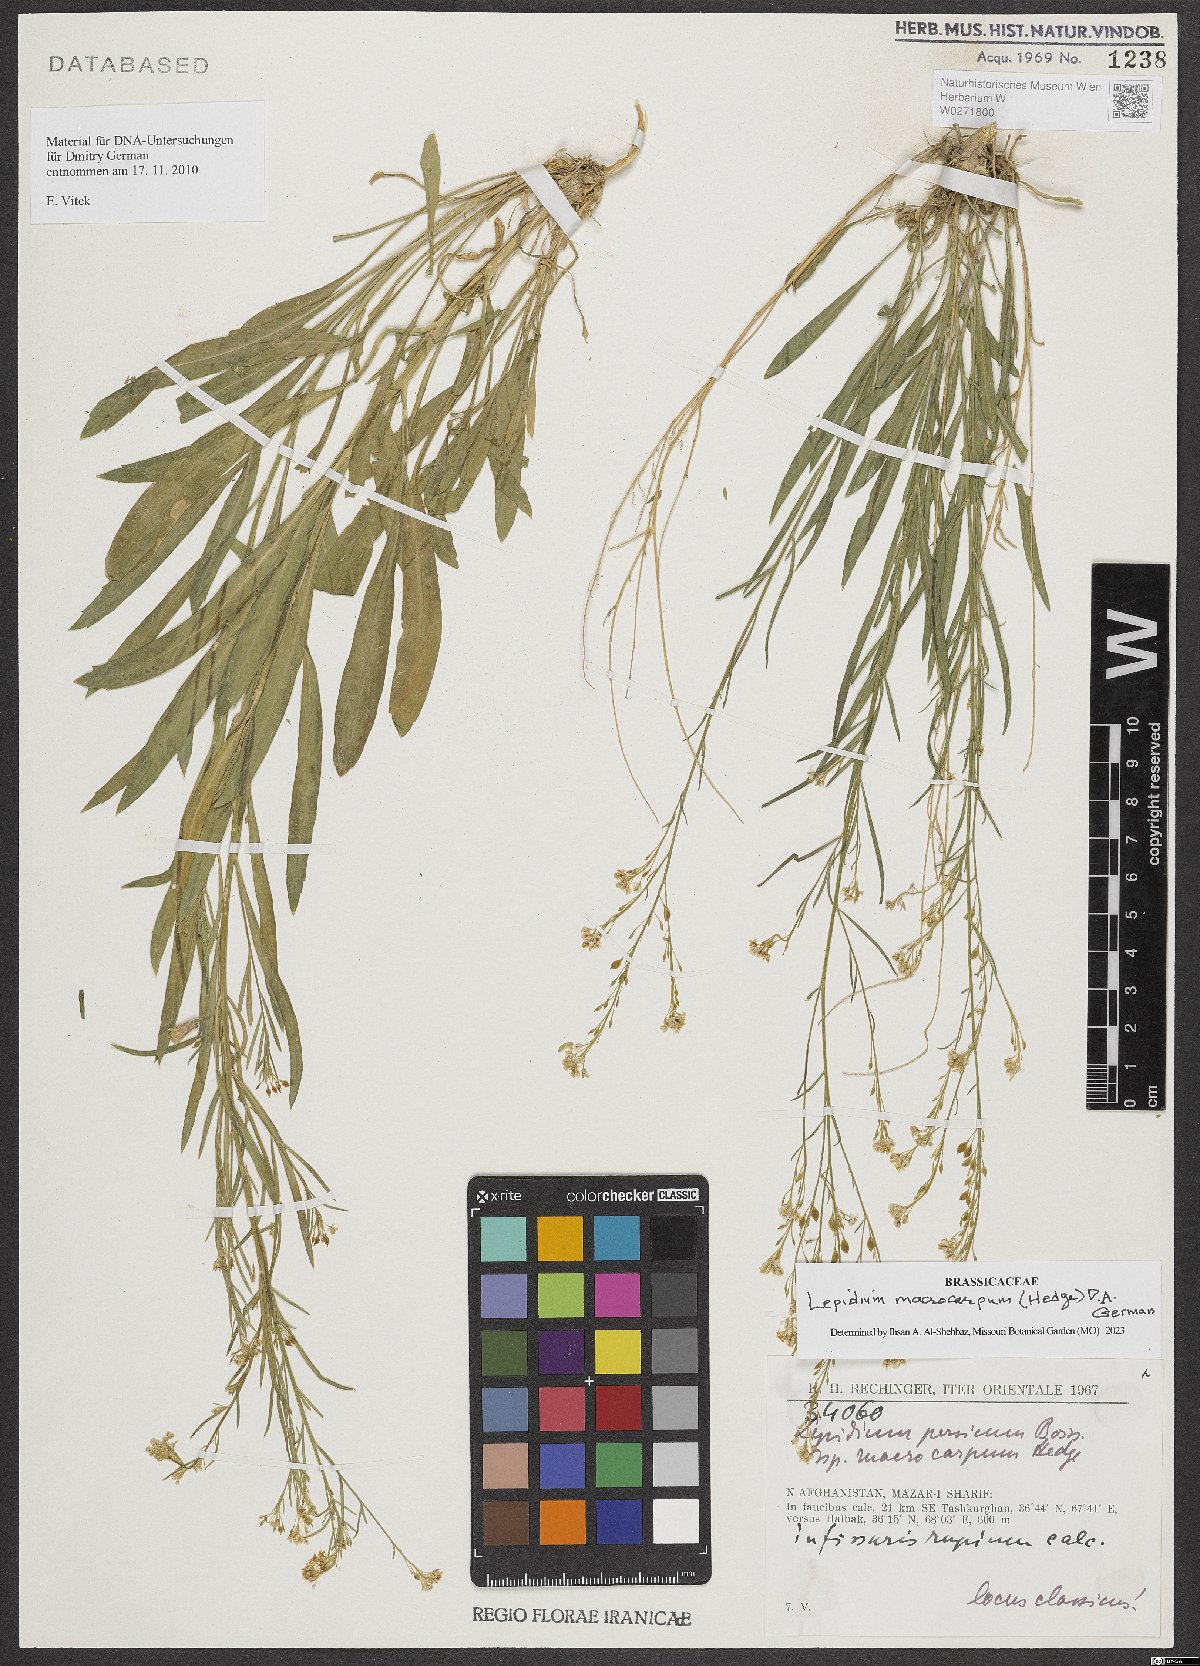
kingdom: Plantae
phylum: Tracheophyta
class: Magnoliopsida
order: Brassicales
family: Brassicaceae
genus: Lepidium
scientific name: Lepidium macrocarpum
